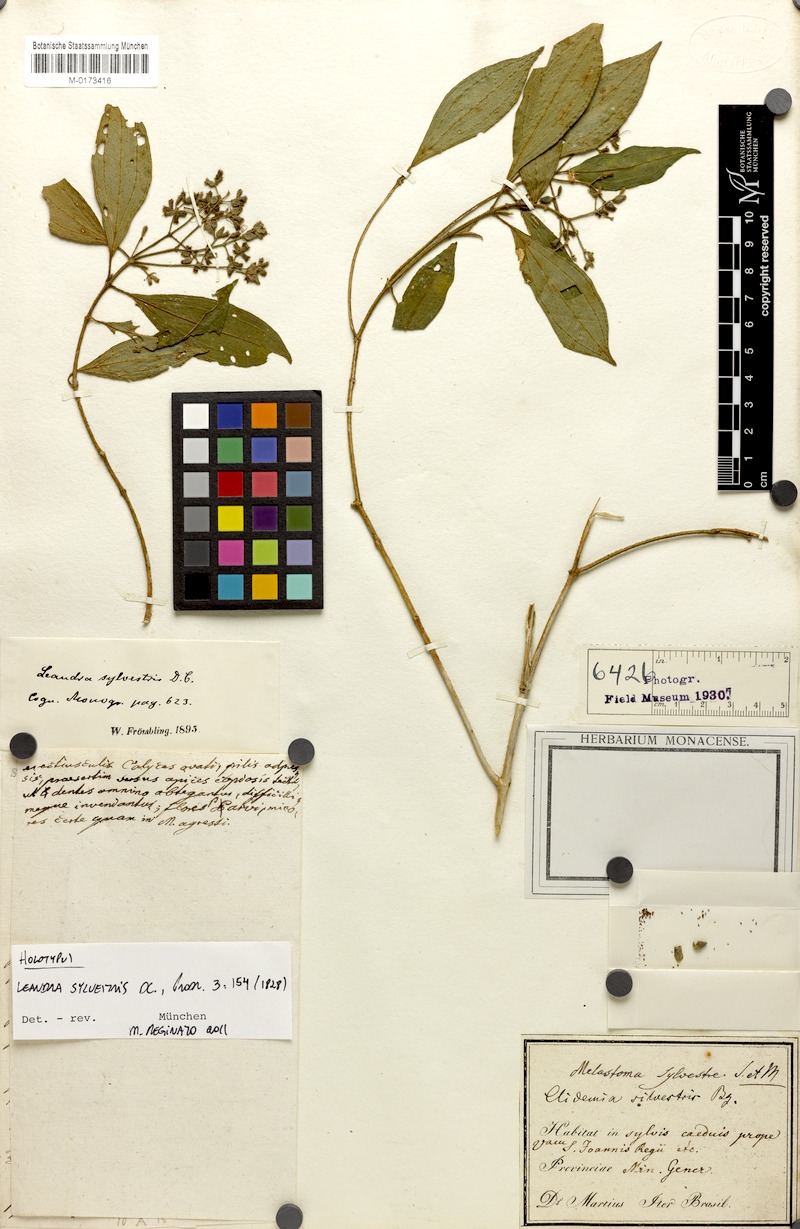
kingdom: Plantae
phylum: Tracheophyta
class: Magnoliopsida
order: Myrtales
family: Melastomataceae
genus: Miconia
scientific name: Miconia dubia
